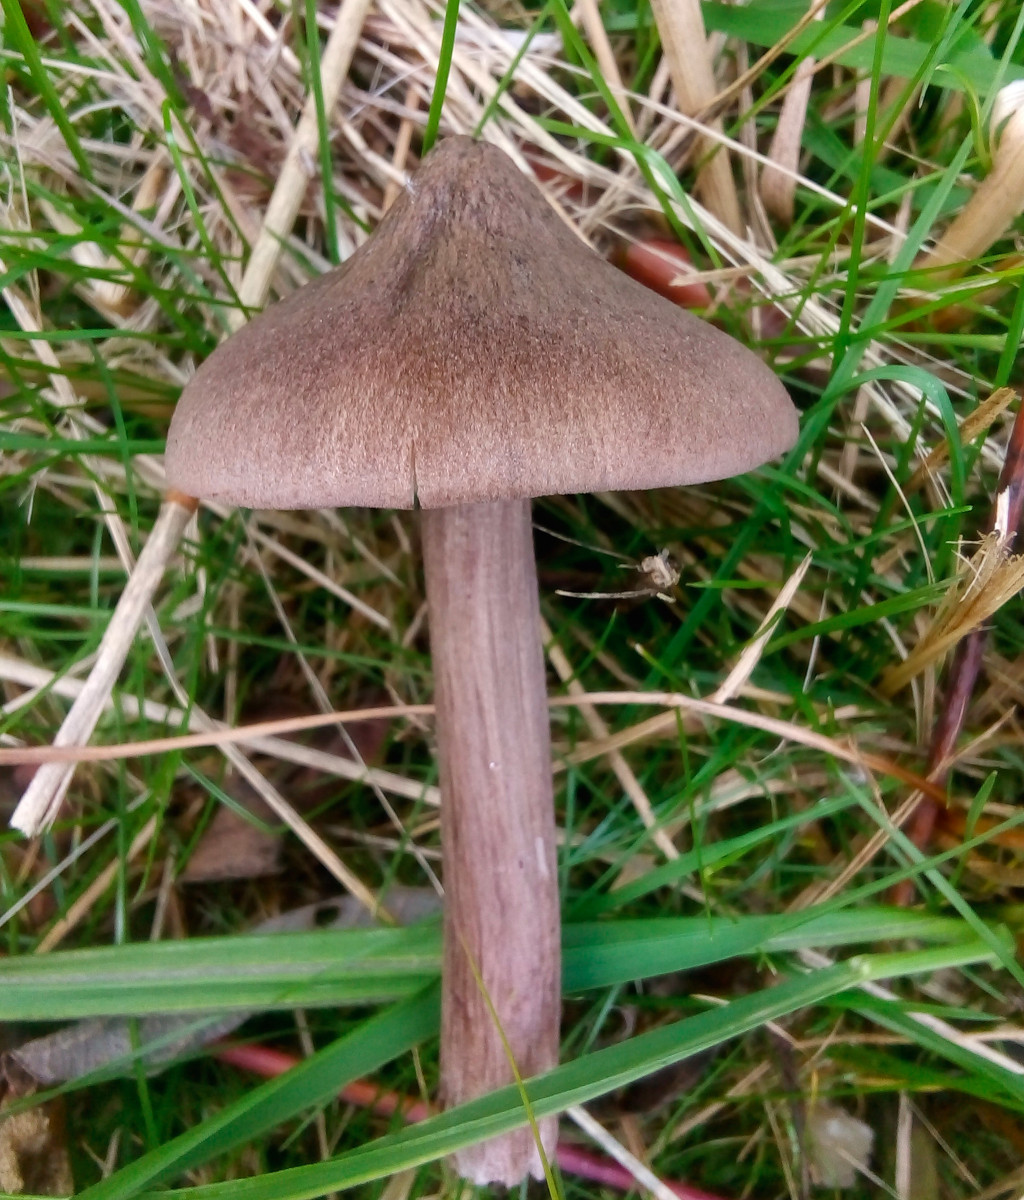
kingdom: Fungi
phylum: Basidiomycota
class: Agaricomycetes
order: Agaricales
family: Entolomataceae
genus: Entoloma
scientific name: Entoloma porphyrophaeum
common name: porfyrbrun rødblad
